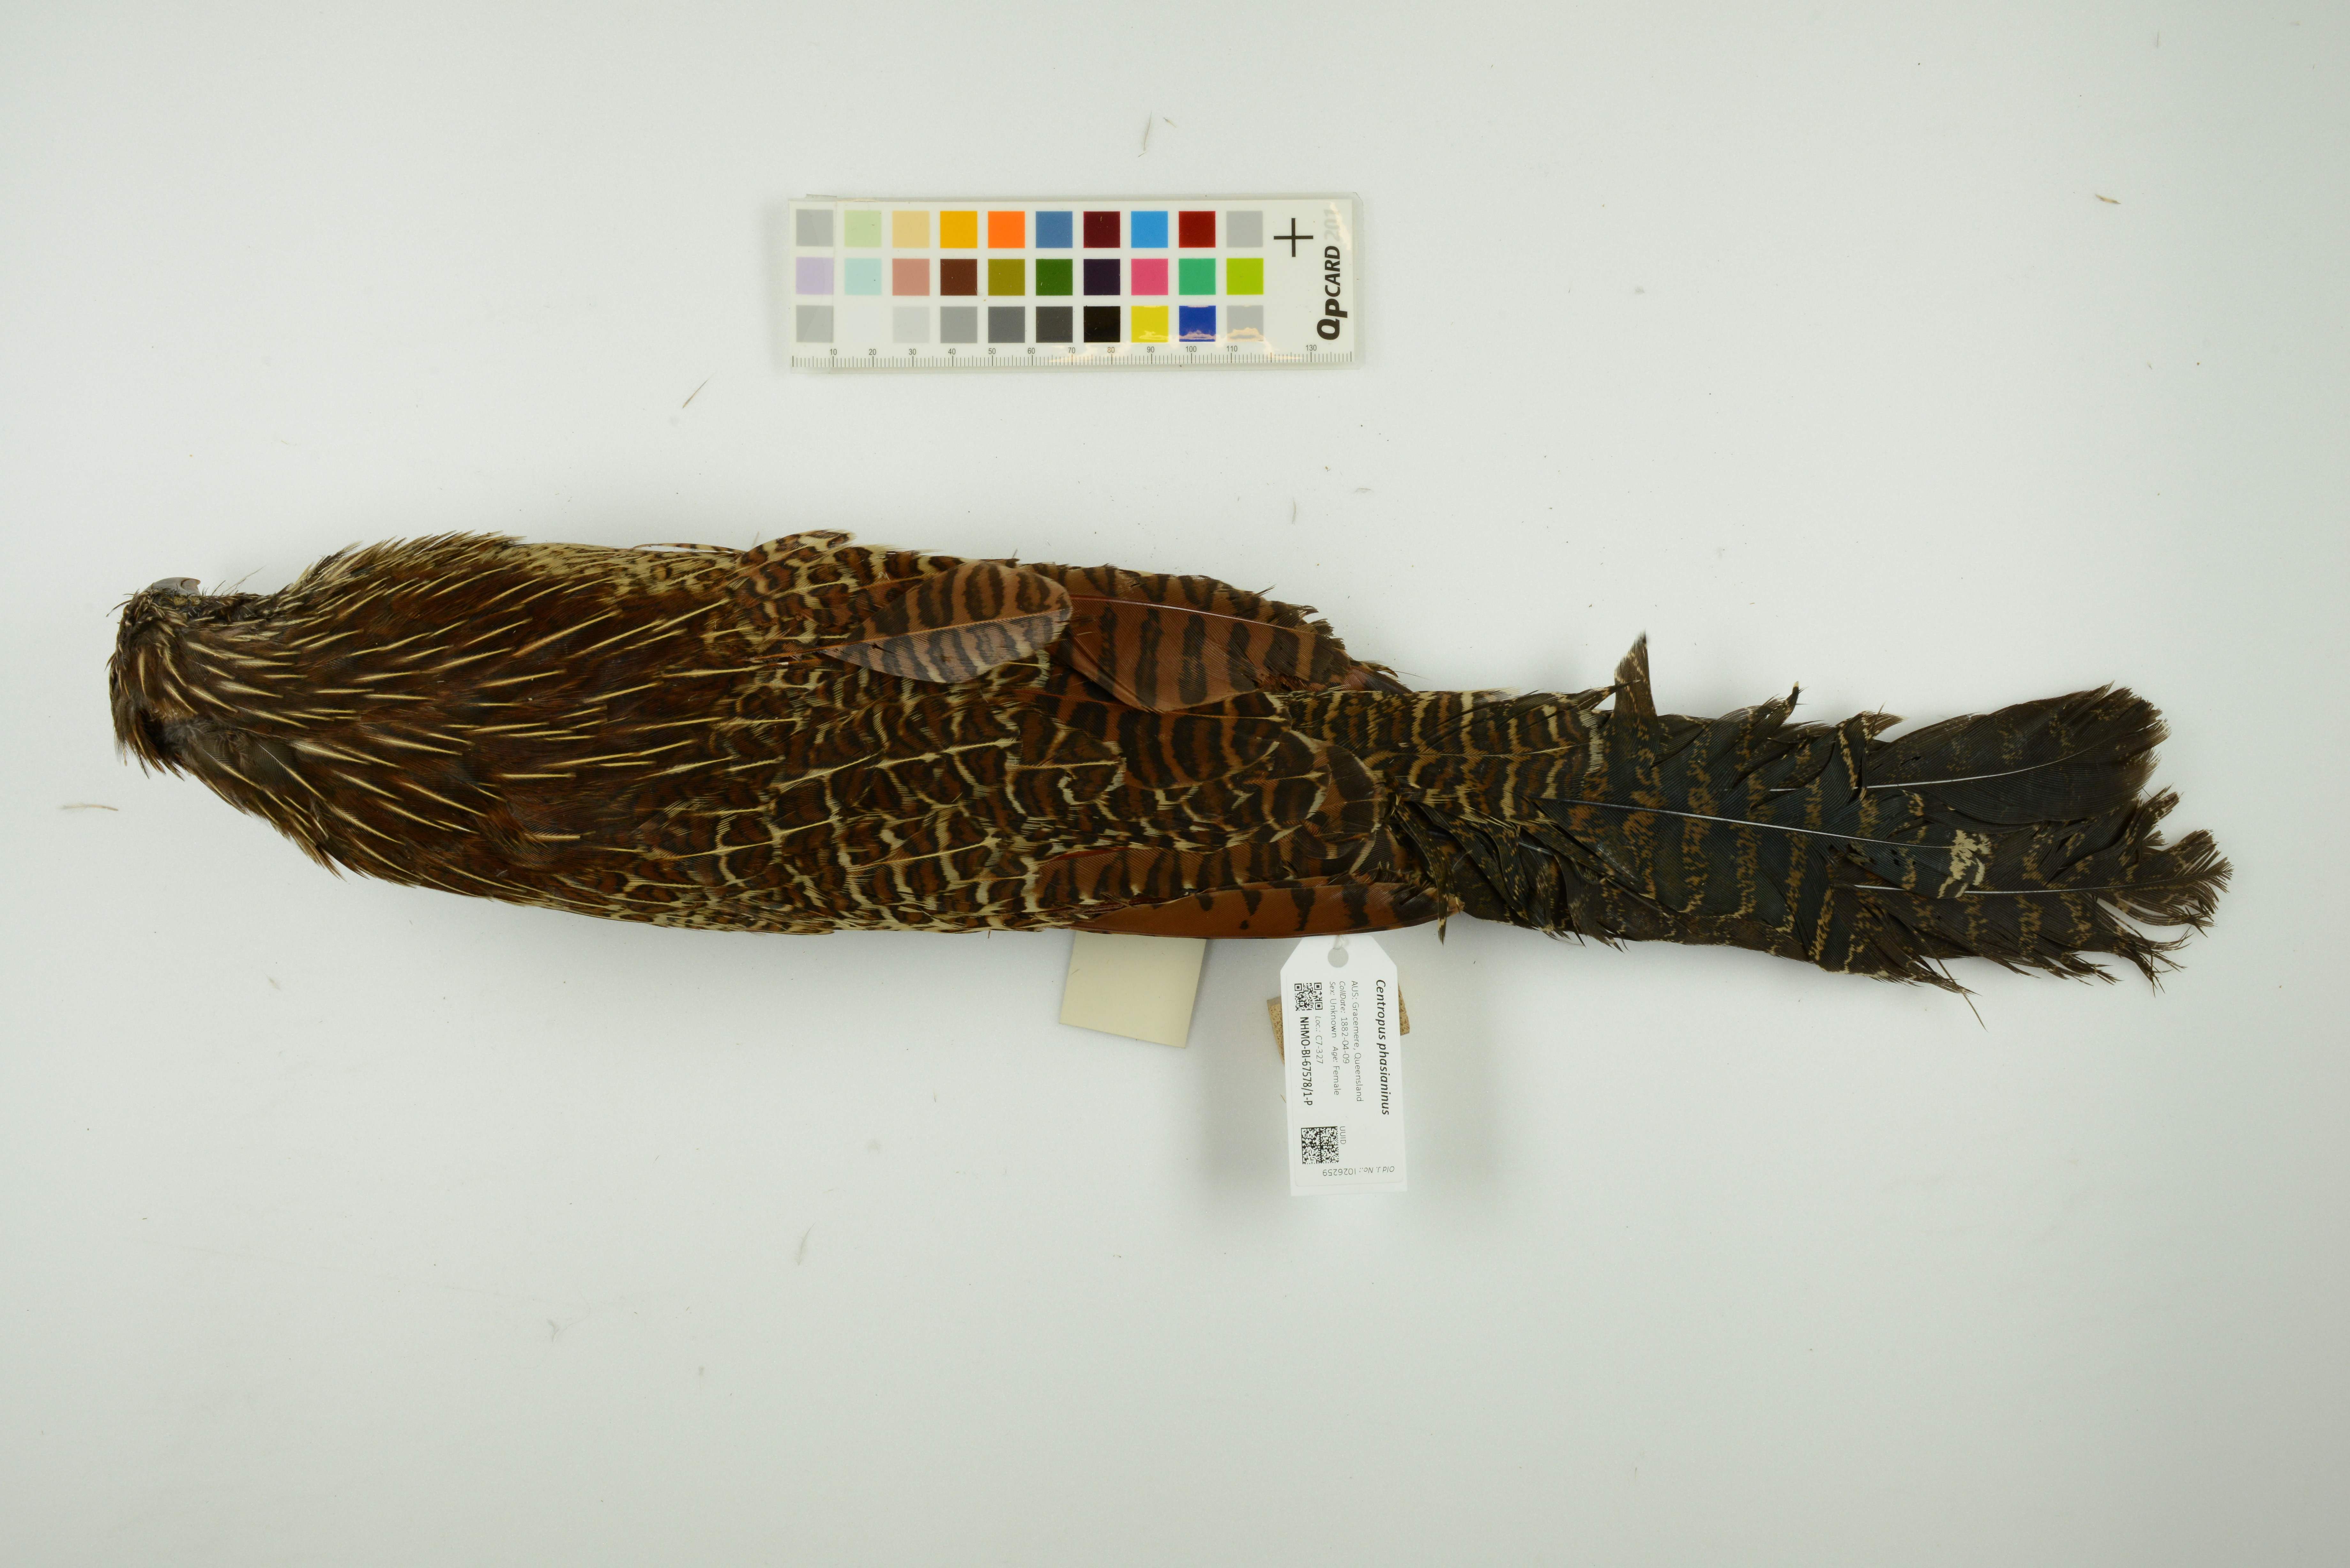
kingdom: Animalia
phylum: Chordata
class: Aves
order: Cuculiformes
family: Cuculidae
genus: Centropus
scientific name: Centropus phasianinus
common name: Pheasant coucal
